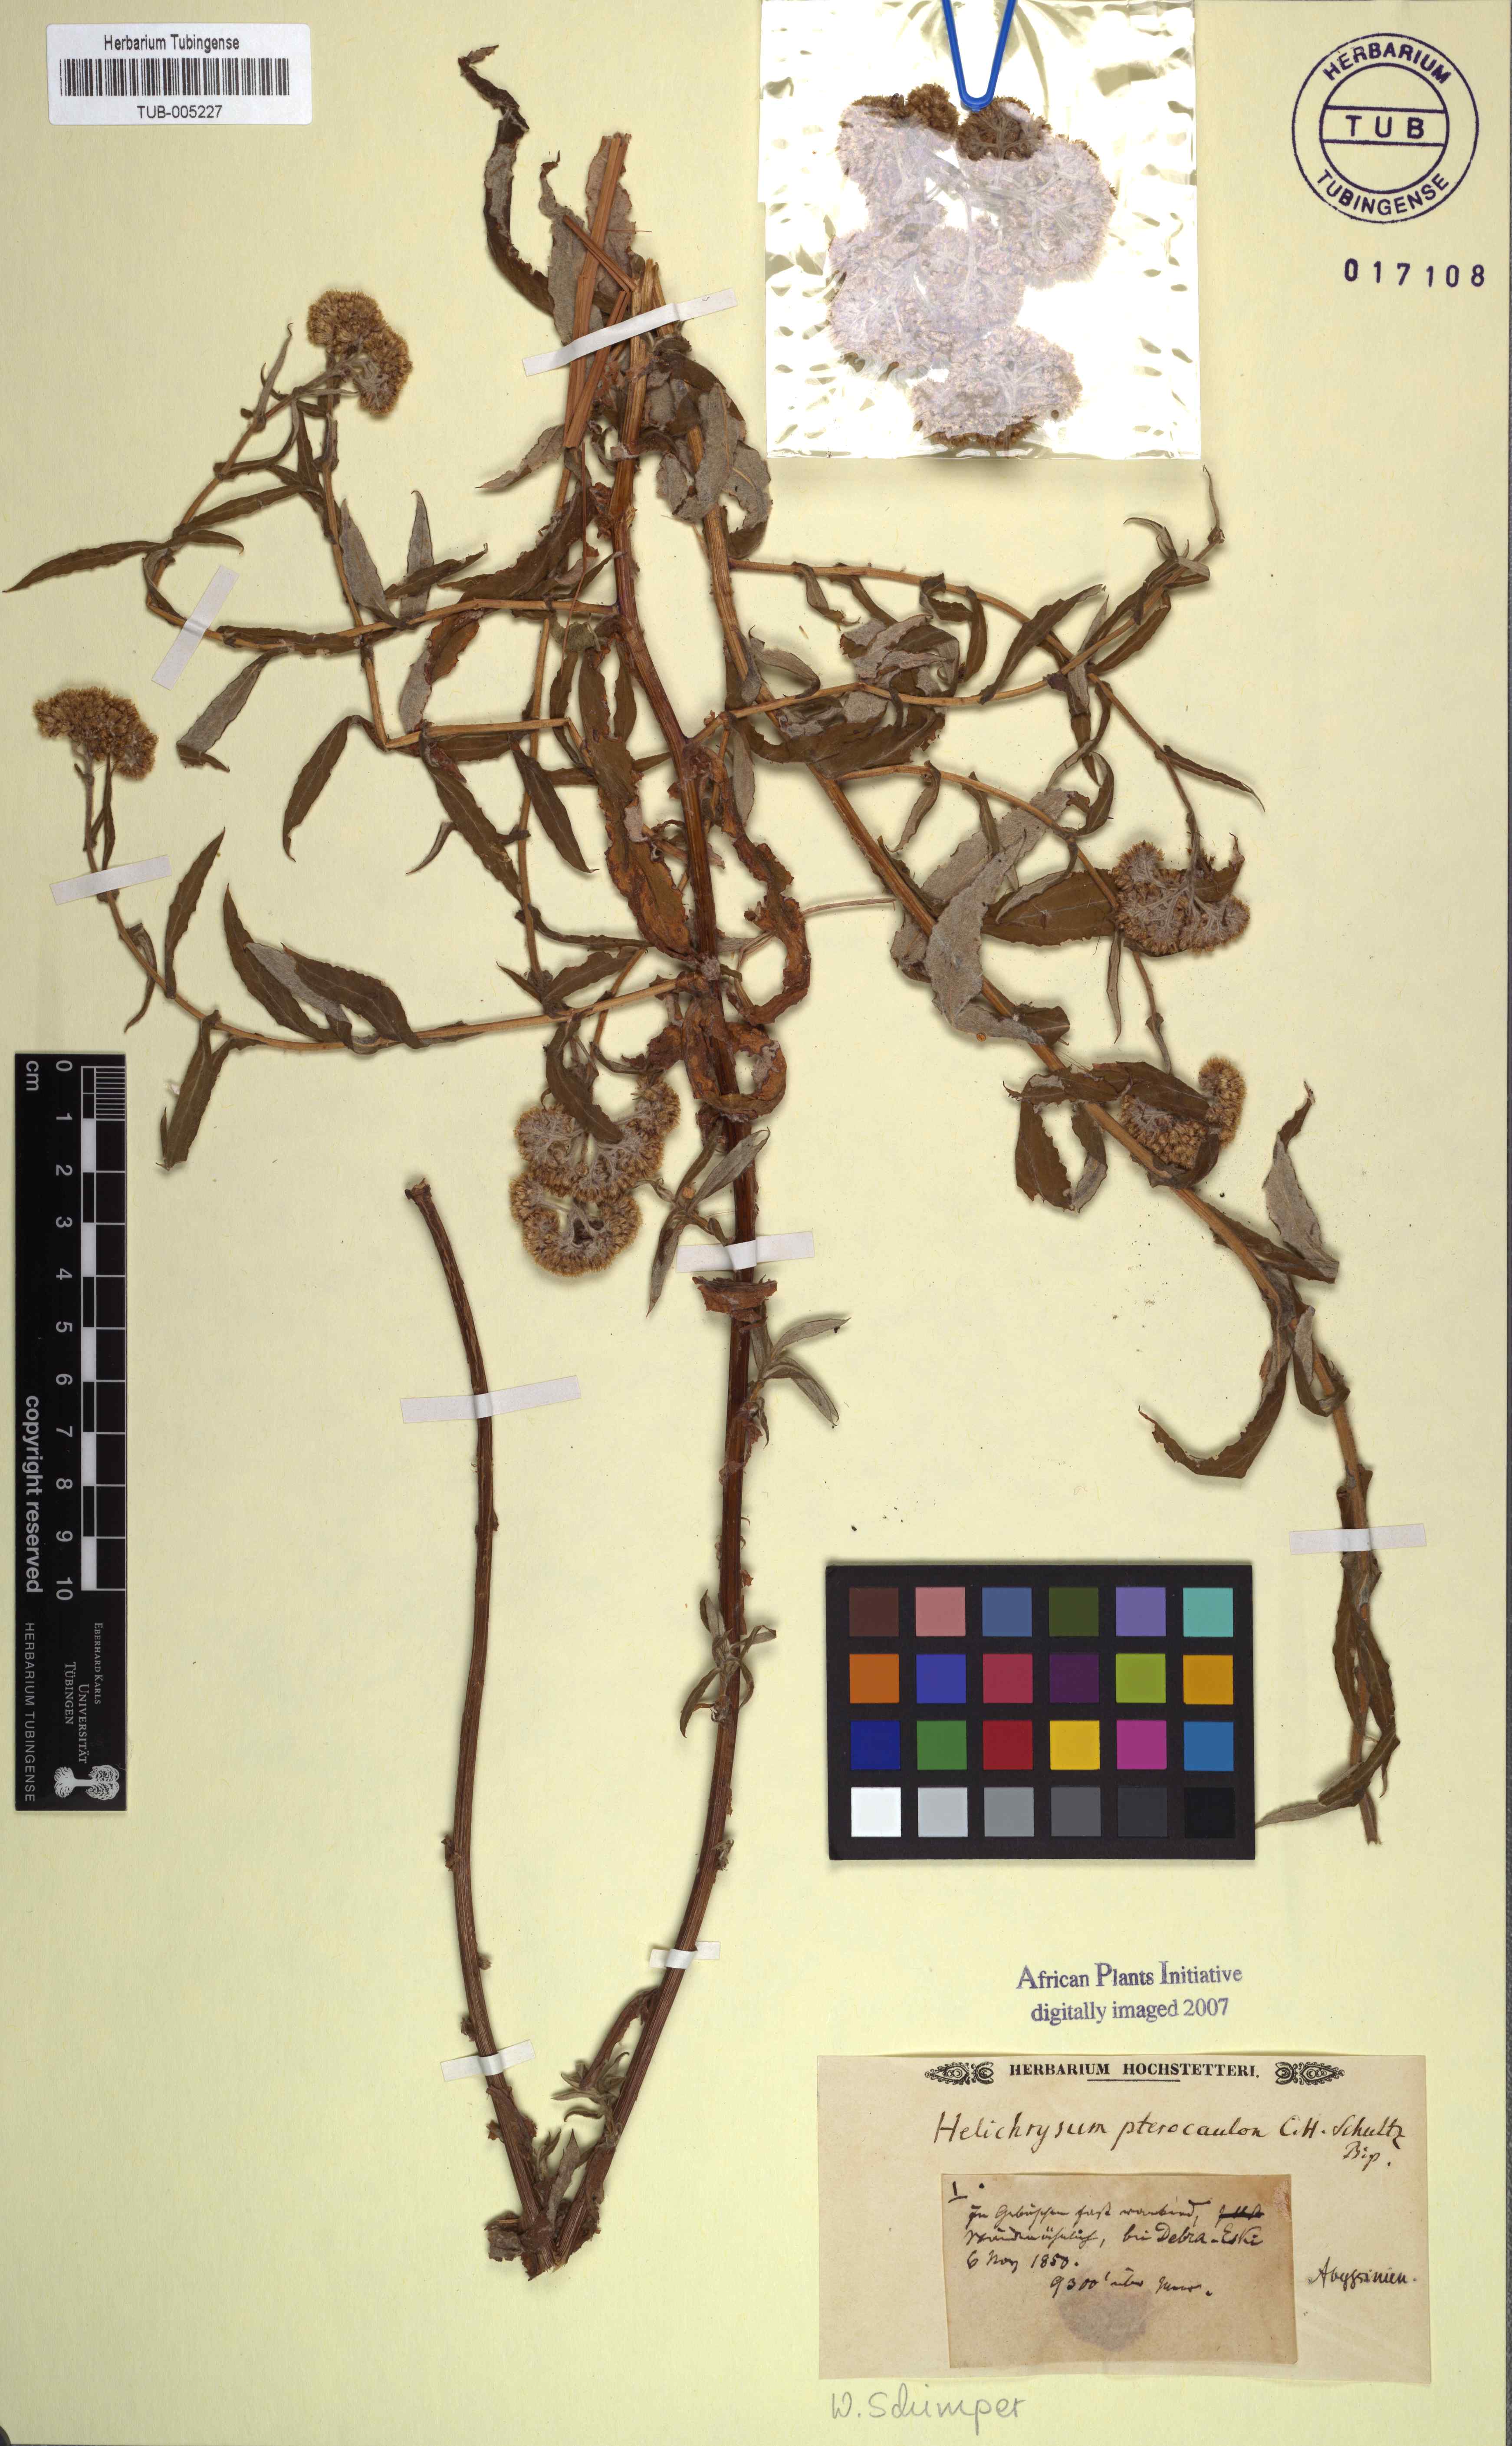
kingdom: Plantae
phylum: Tracheophyta
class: Magnoliopsida
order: Asterales
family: Asteraceae
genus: Helichrysum
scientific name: Helichrysum
